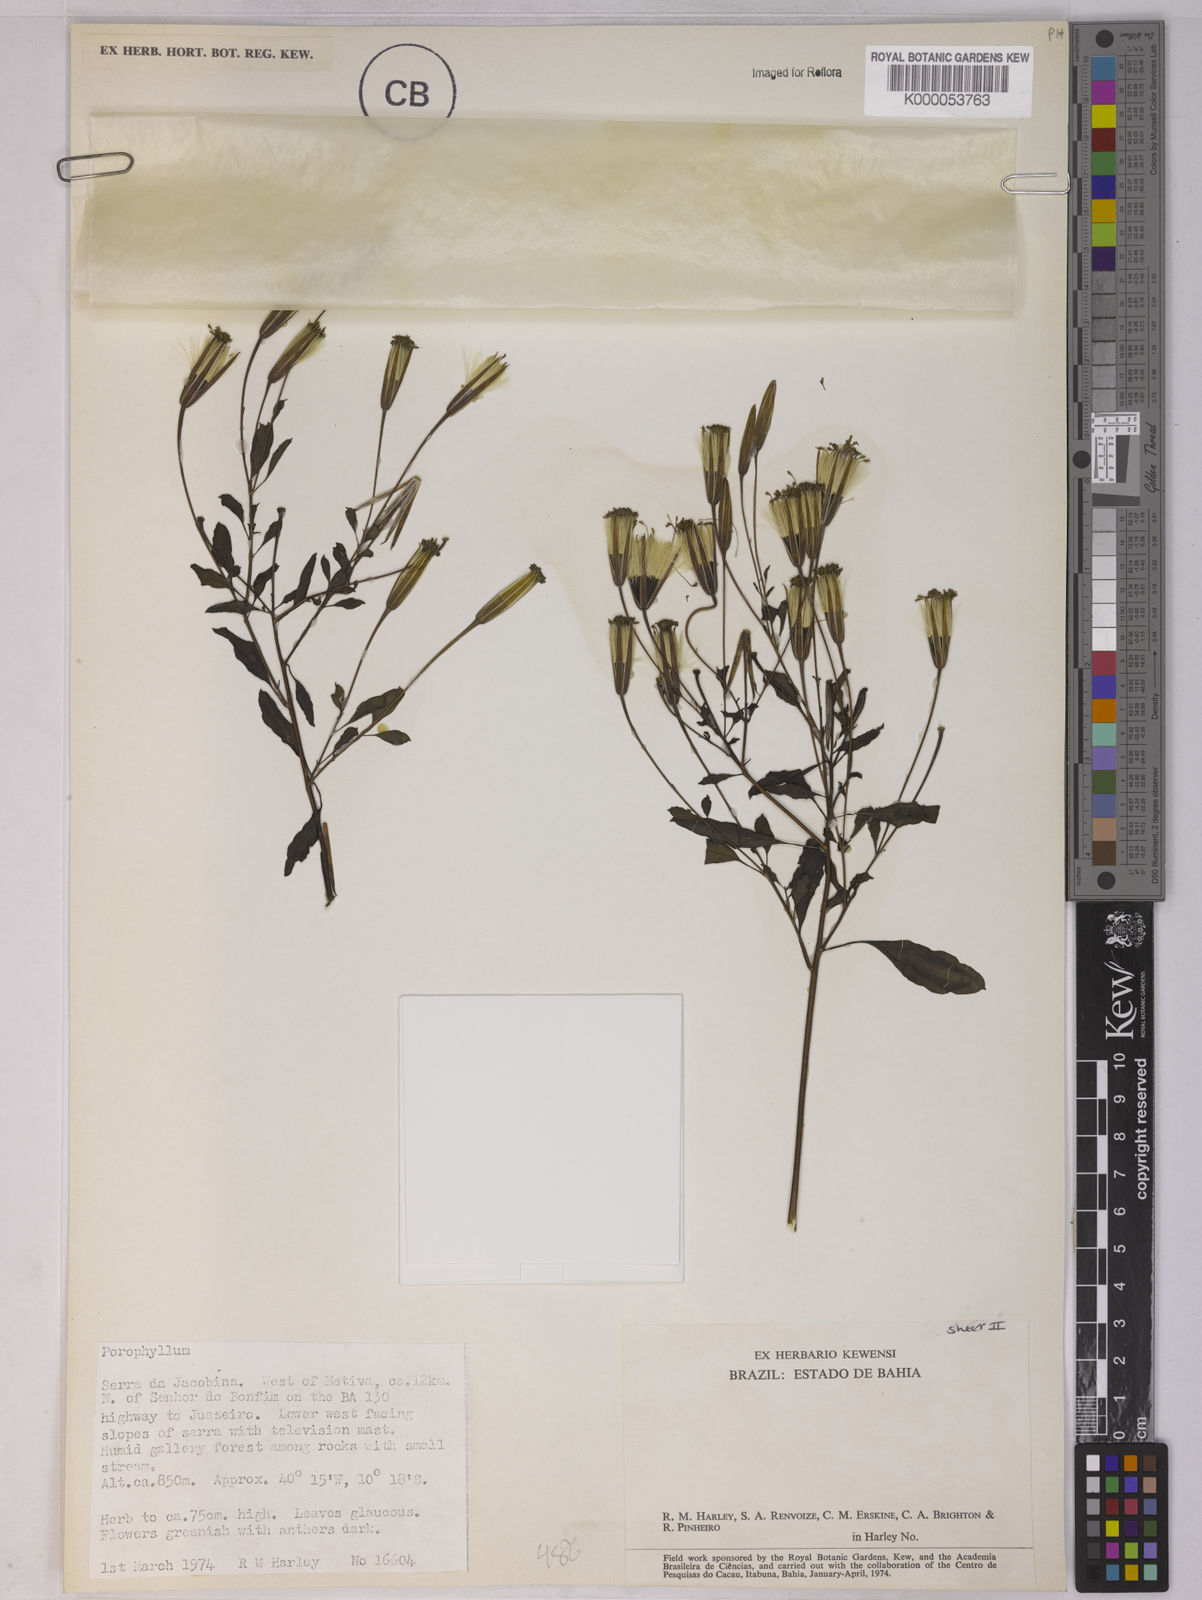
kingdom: Plantae
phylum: Tracheophyta
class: Magnoliopsida
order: Asterales
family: Asteraceae
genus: Porophyllum
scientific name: Porophyllum
